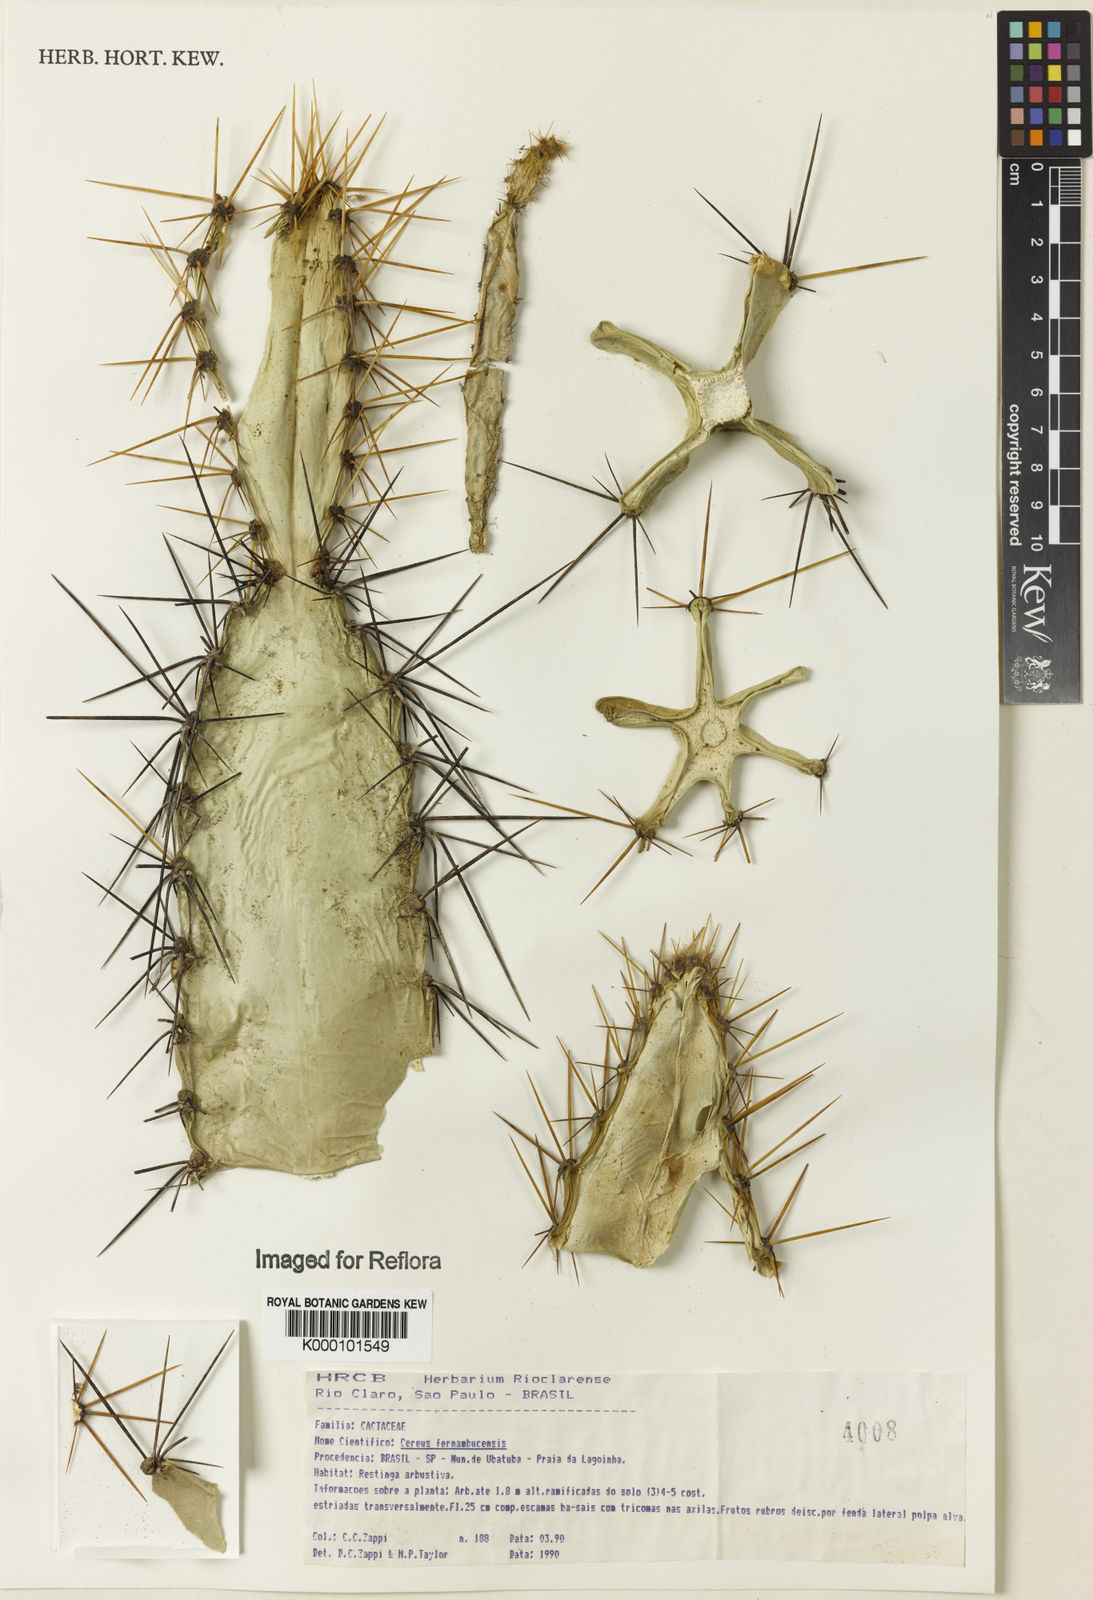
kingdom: Plantae
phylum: Tracheophyta
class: Magnoliopsida
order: Caryophyllales
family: Cactaceae
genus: Cereus
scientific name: Cereus
